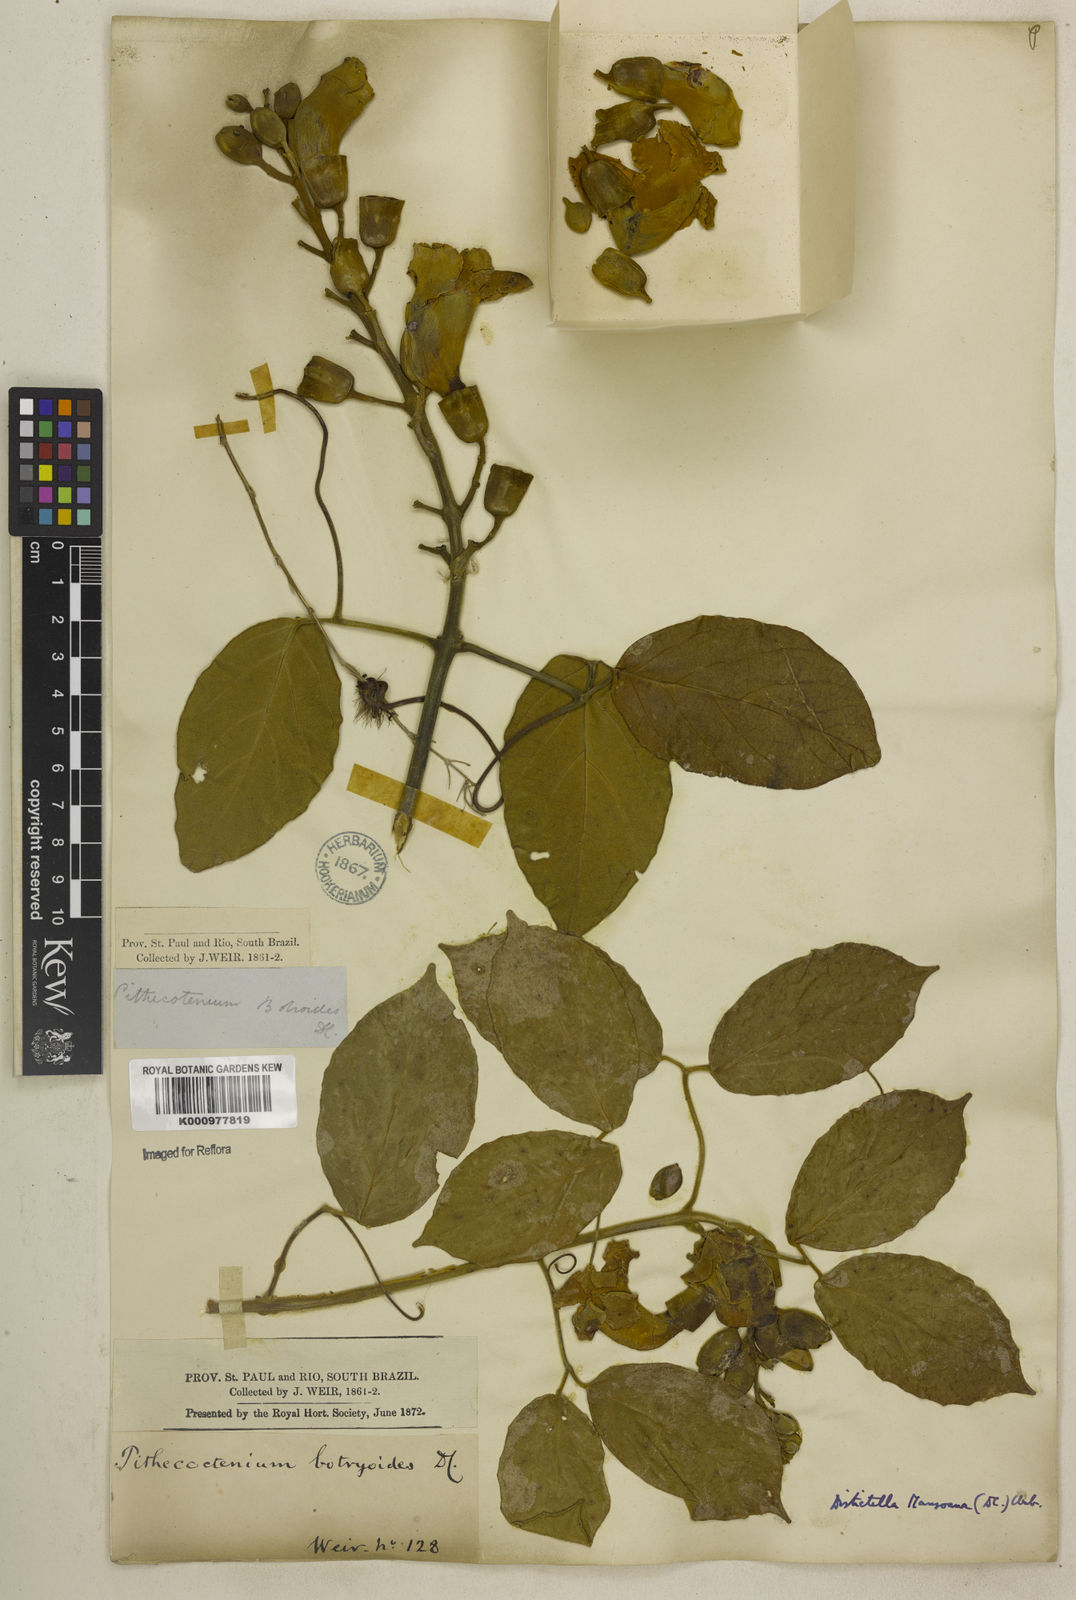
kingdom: Plantae
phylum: Tracheophyta
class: Magnoliopsida
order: Lamiales
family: Bignoniaceae
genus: Amphilophium
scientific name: Amphilophium mansoanum
